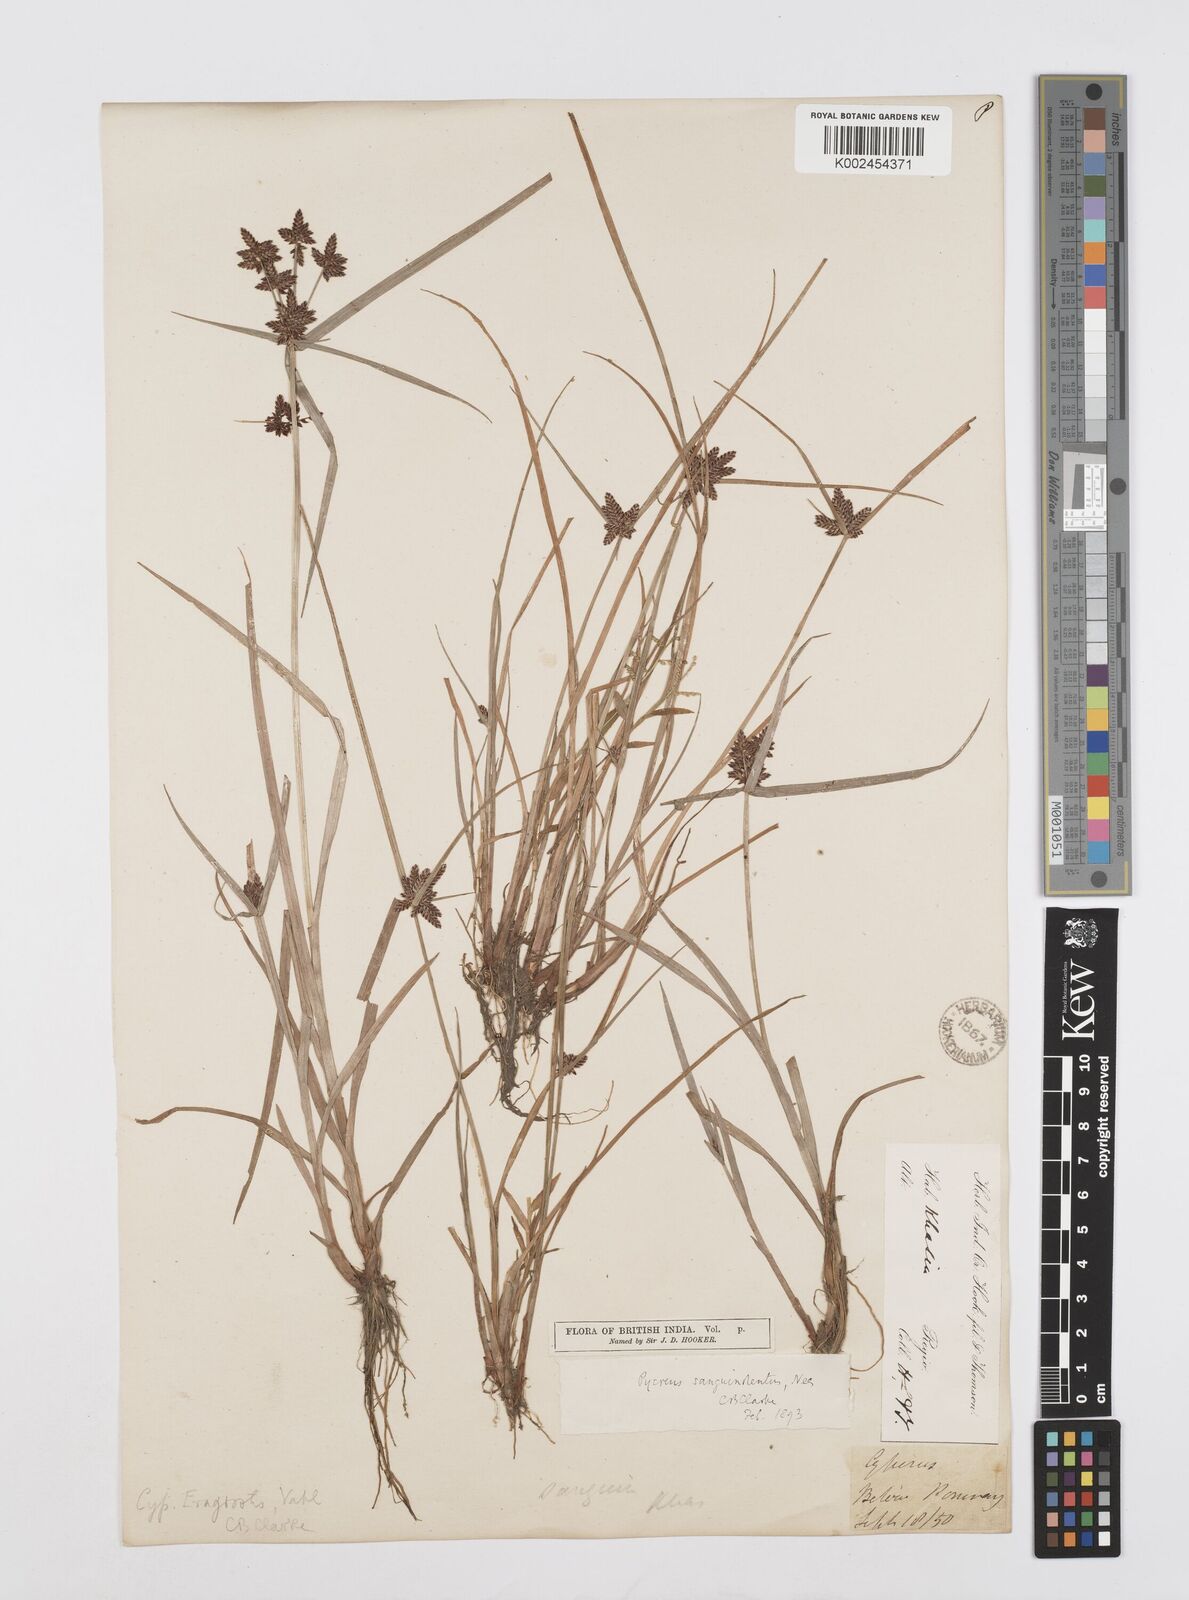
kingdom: Plantae
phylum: Tracheophyta
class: Liliopsida
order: Poales
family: Cyperaceae
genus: Cyperus
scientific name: Cyperus sanguinolentus
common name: Purpleglume flatsedge
